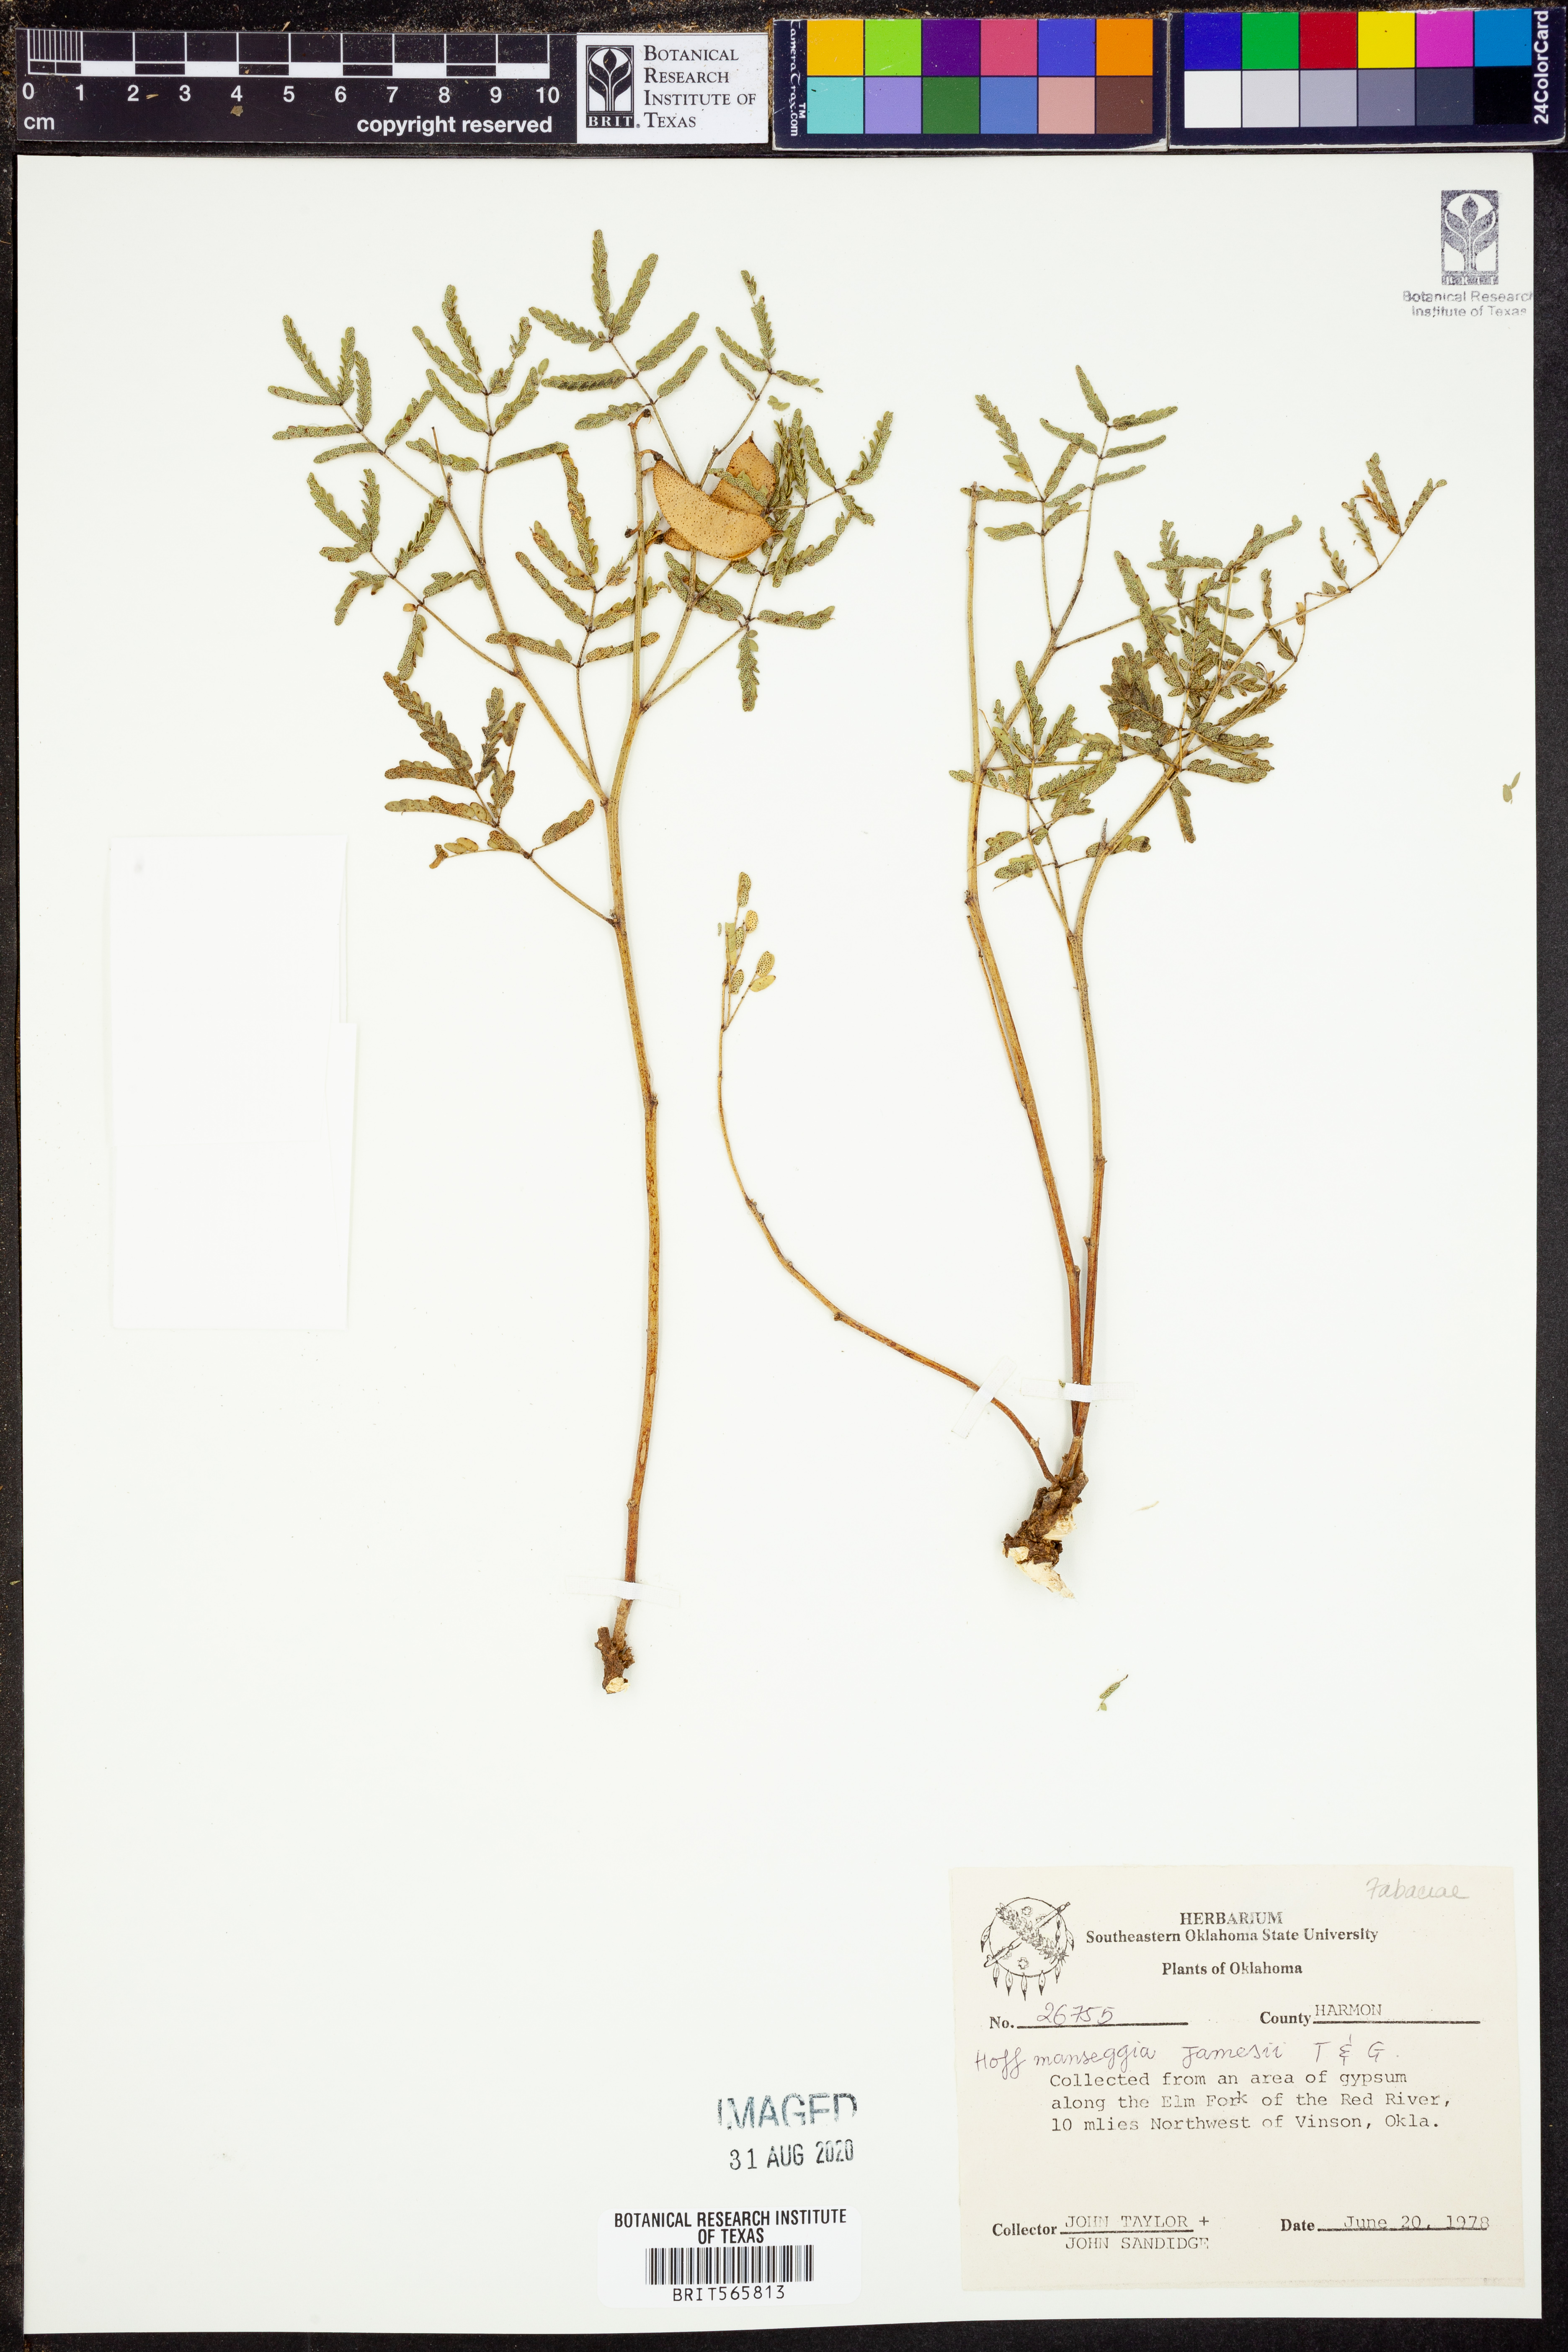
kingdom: Plantae
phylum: Tracheophyta
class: Magnoliopsida
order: Fabales
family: Fabaceae
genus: Pomaria
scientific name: Pomaria jamesii
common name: James' caesalpinia
